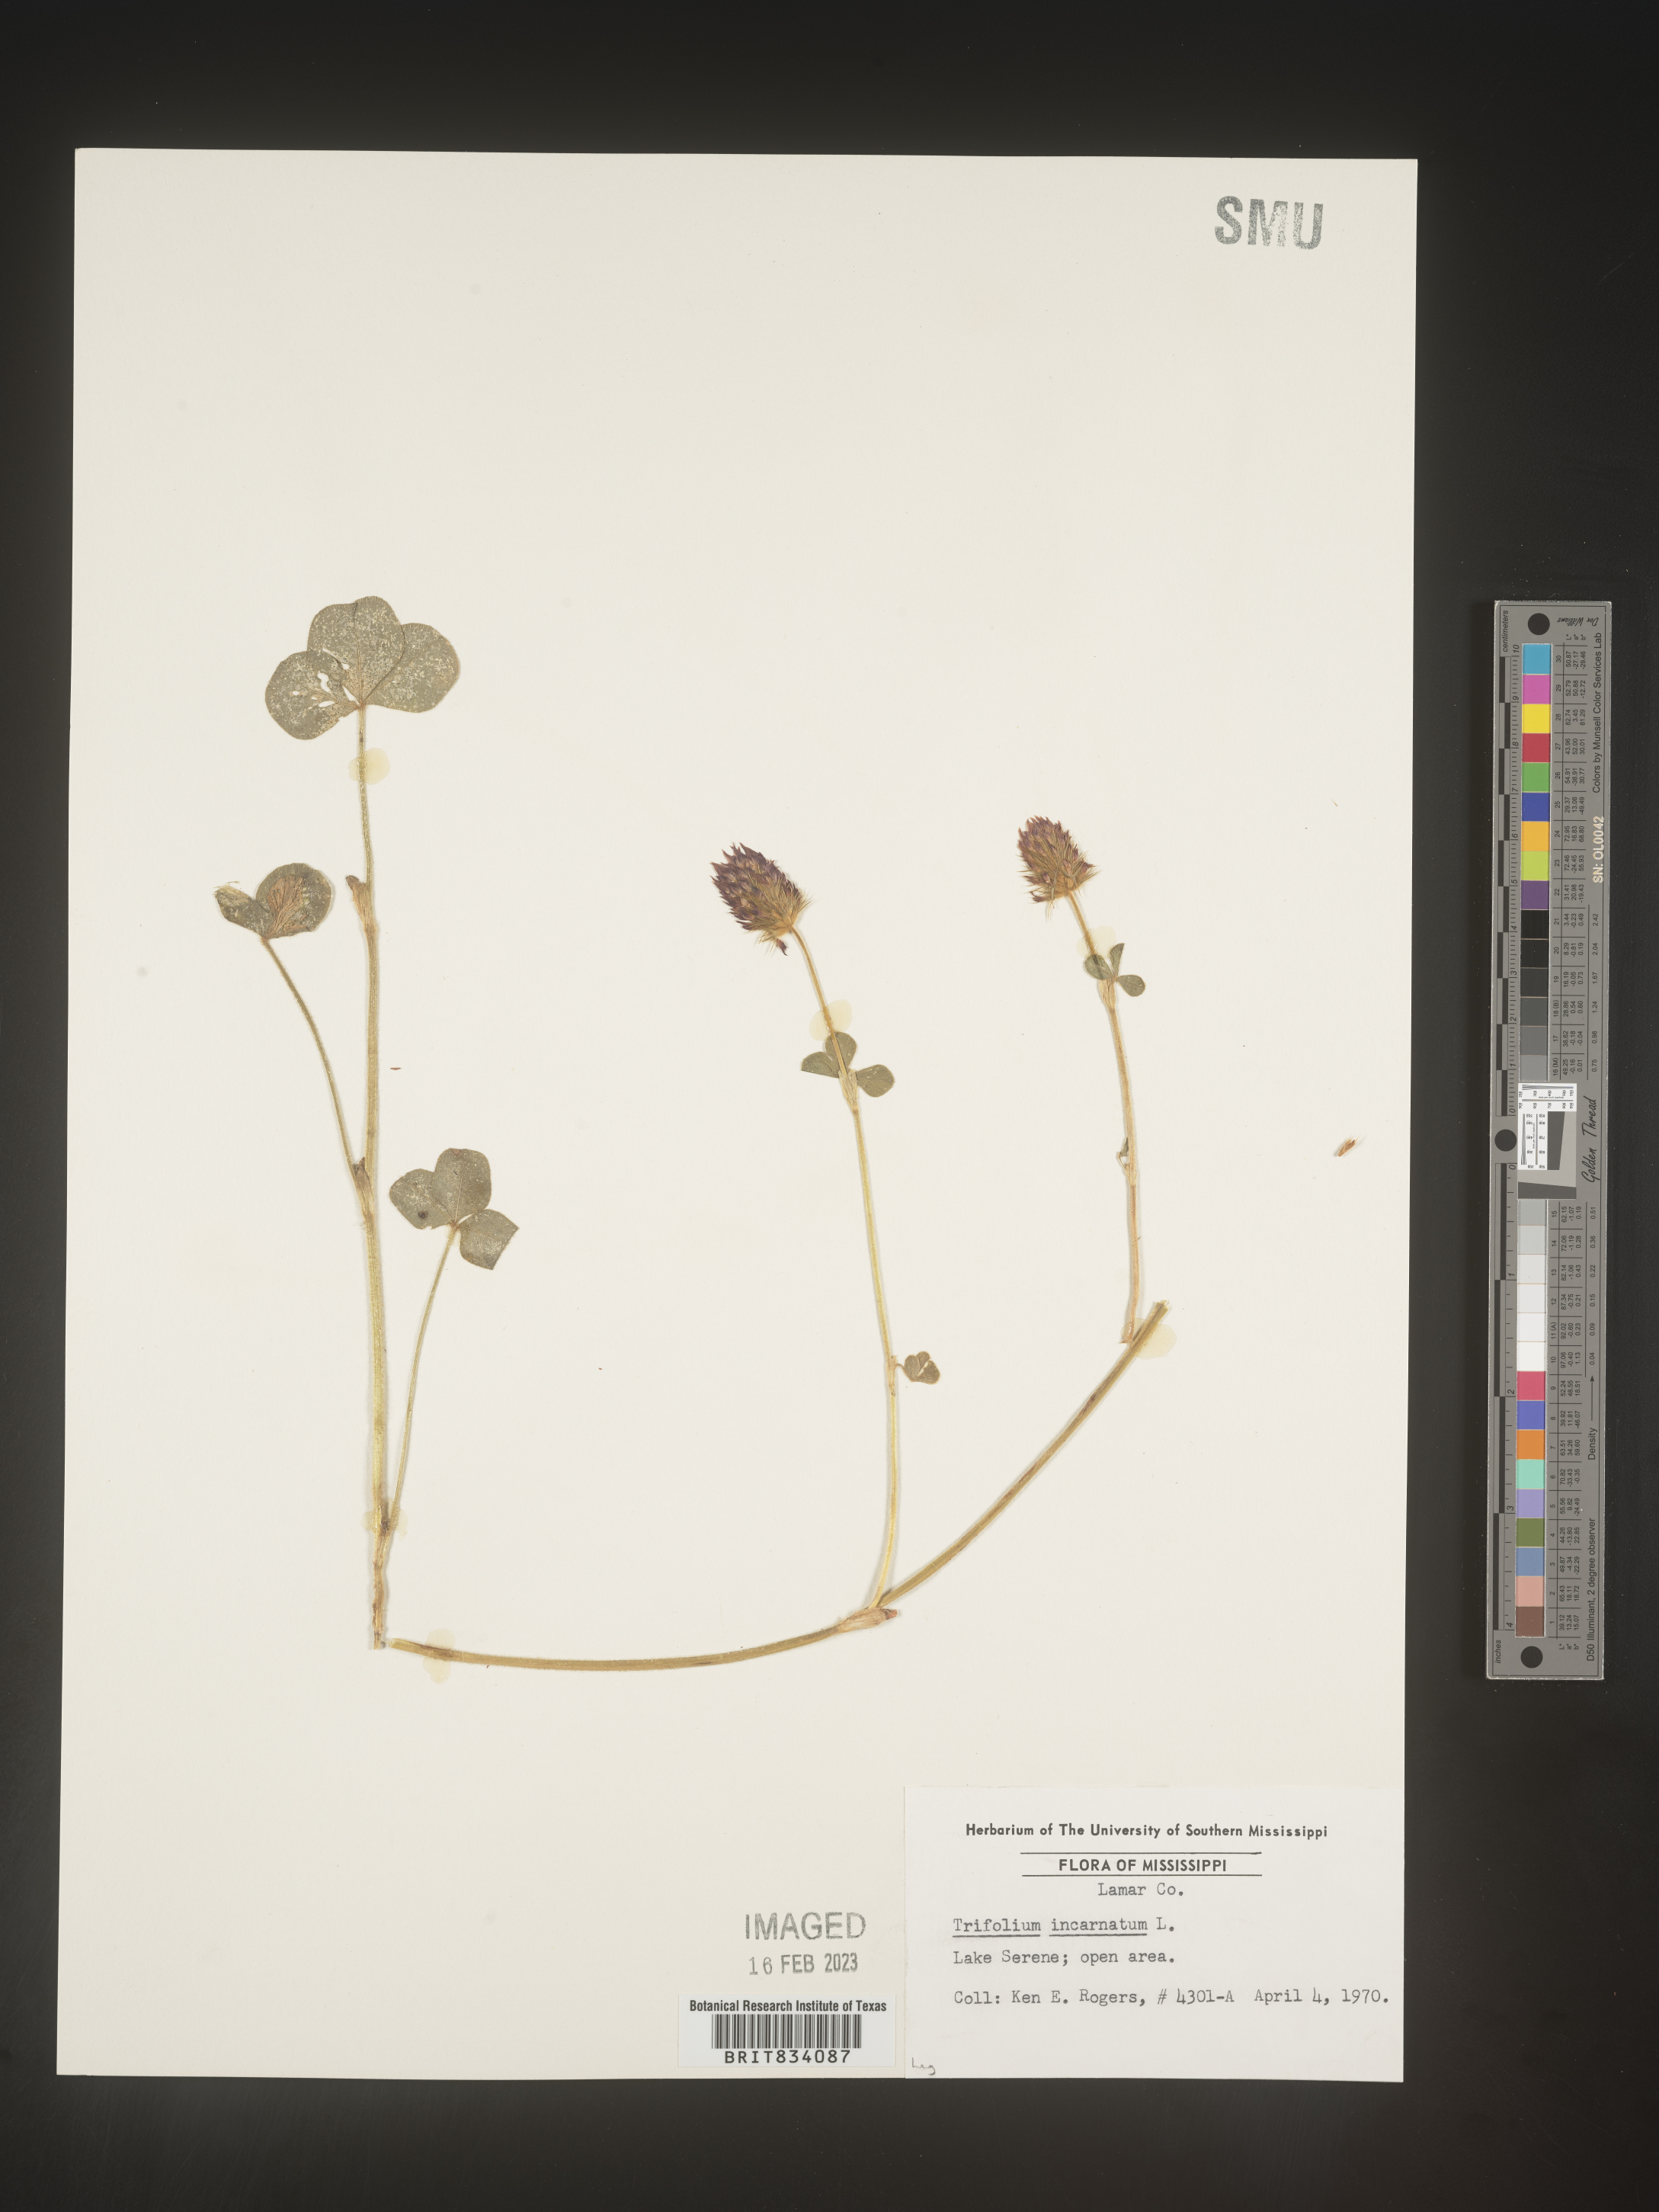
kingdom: Plantae
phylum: Tracheophyta
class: Magnoliopsida
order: Fabales
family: Fabaceae
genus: Trifolium
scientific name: Trifolium incarnatum
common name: Crimson clover
